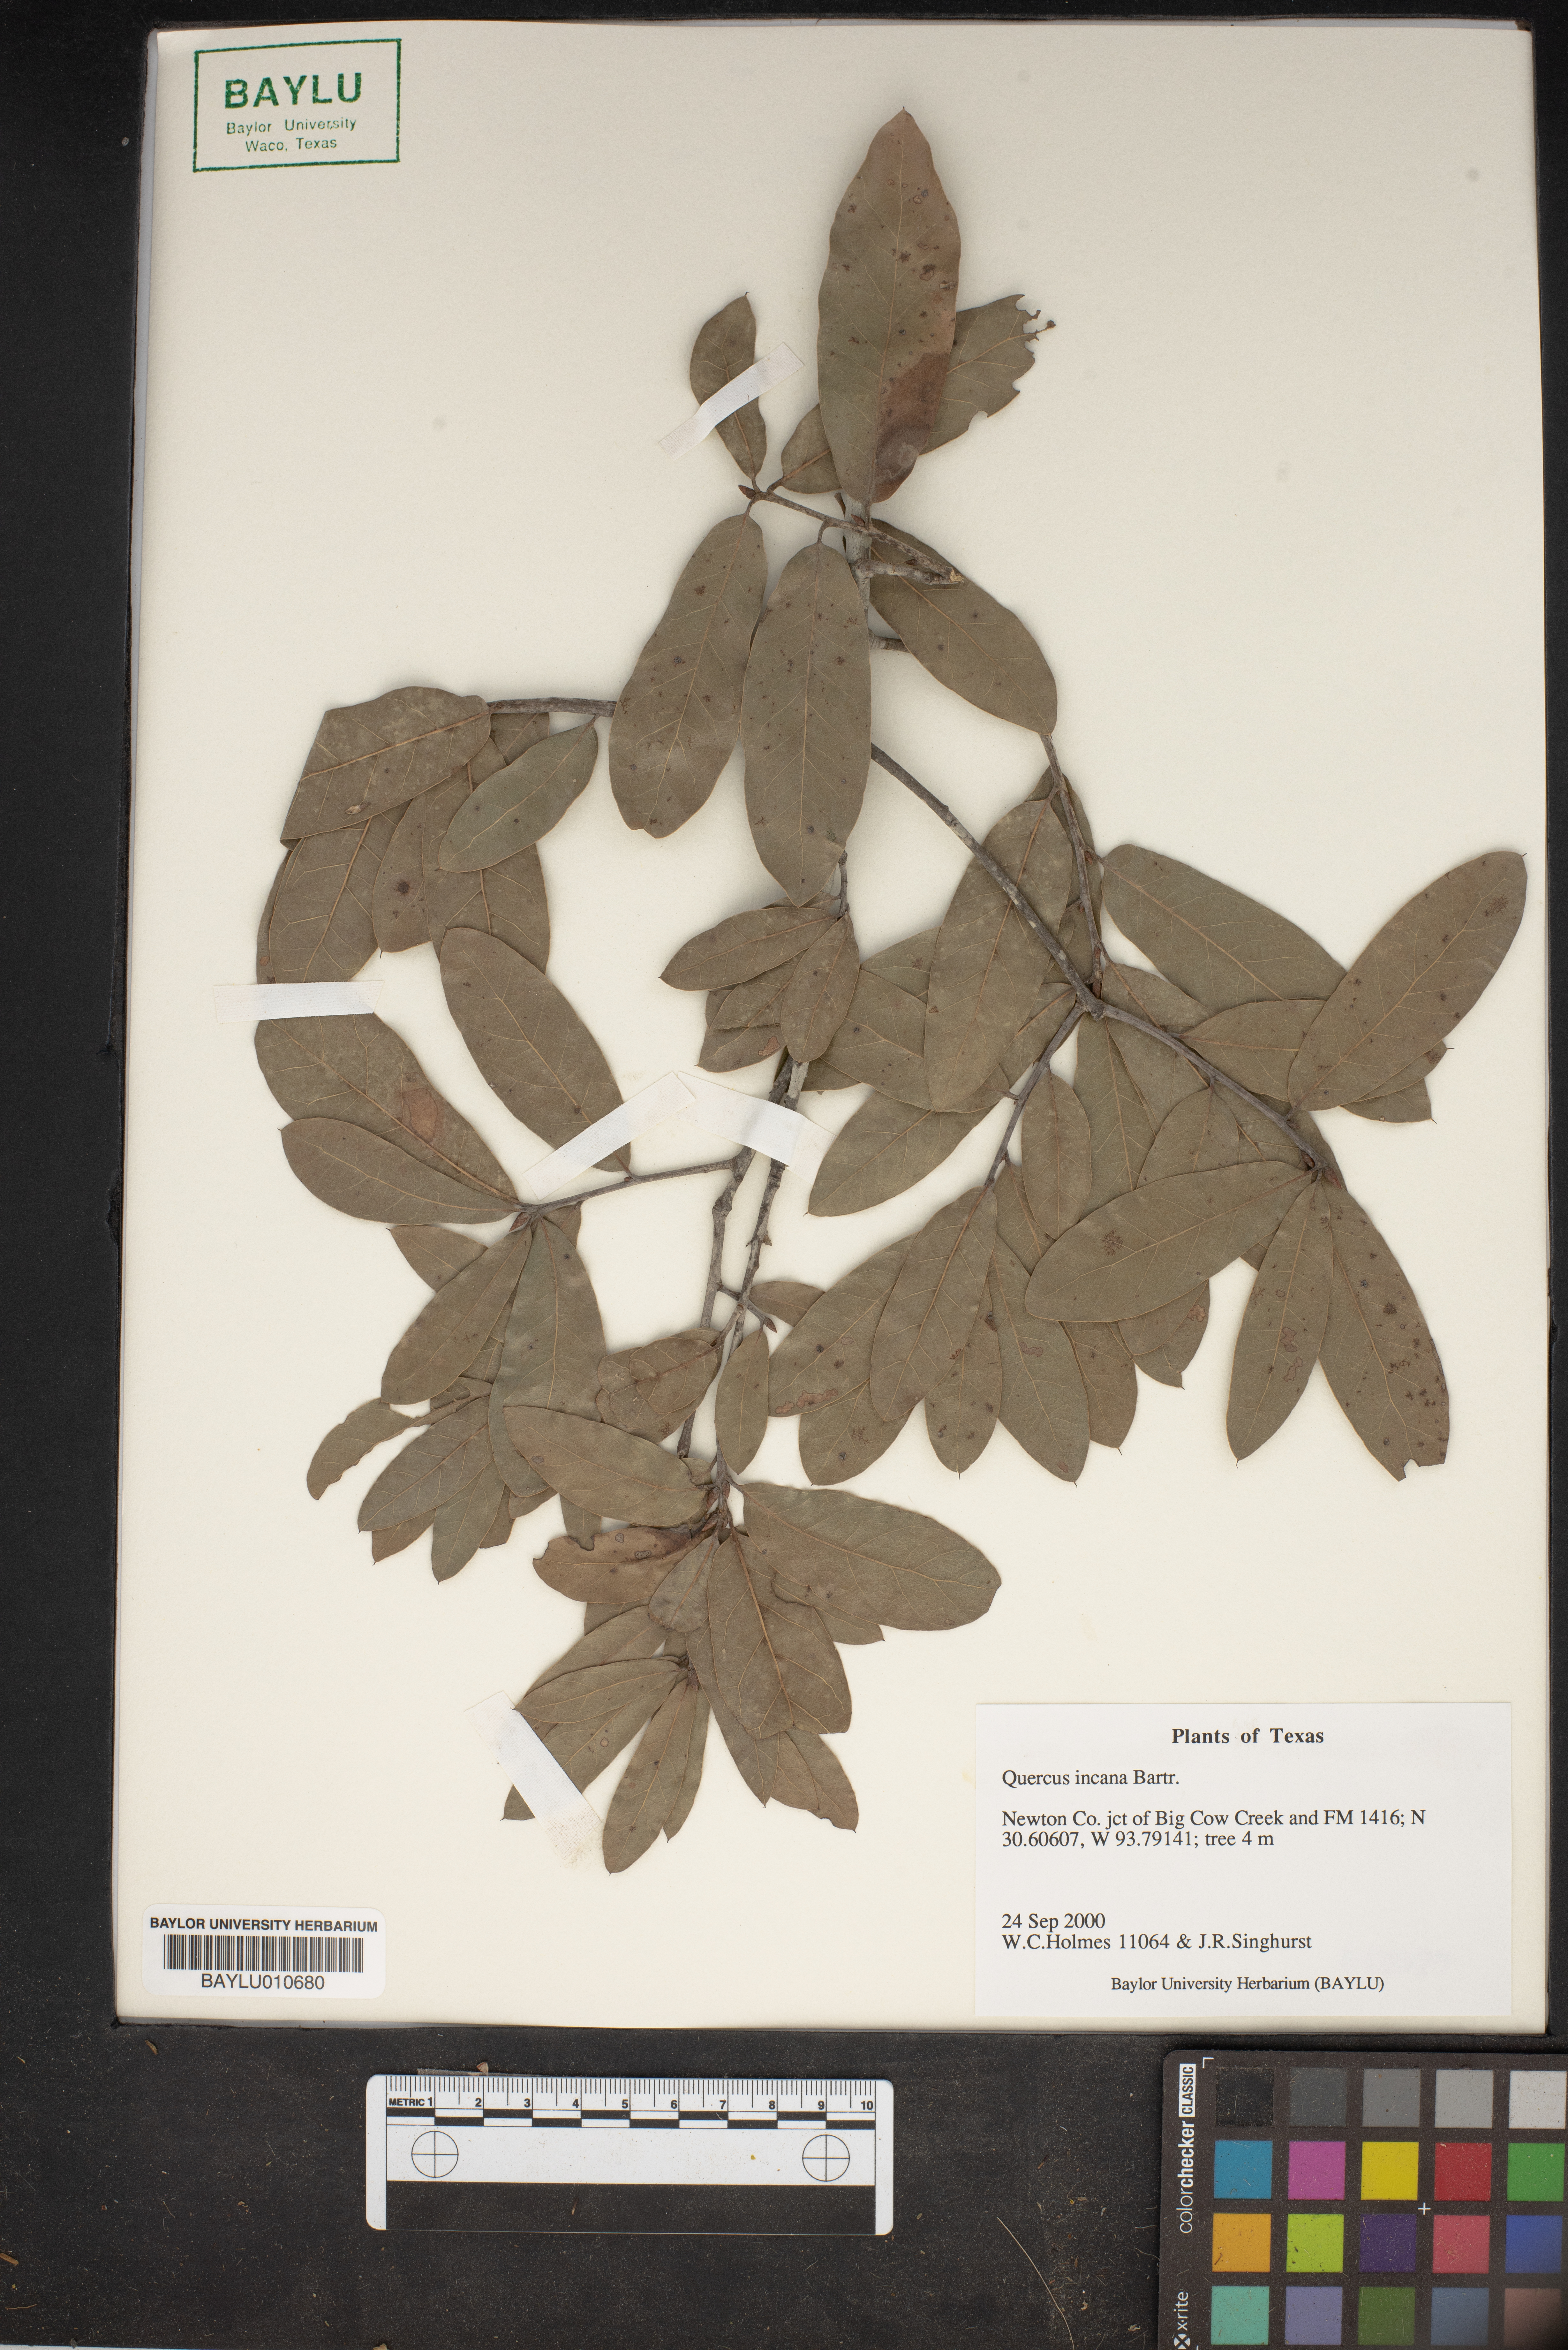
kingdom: Plantae
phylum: Tracheophyta
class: Magnoliopsida
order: Fagales
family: Fagaceae
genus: Quercus
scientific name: Quercus incana
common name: Bluejack oak
